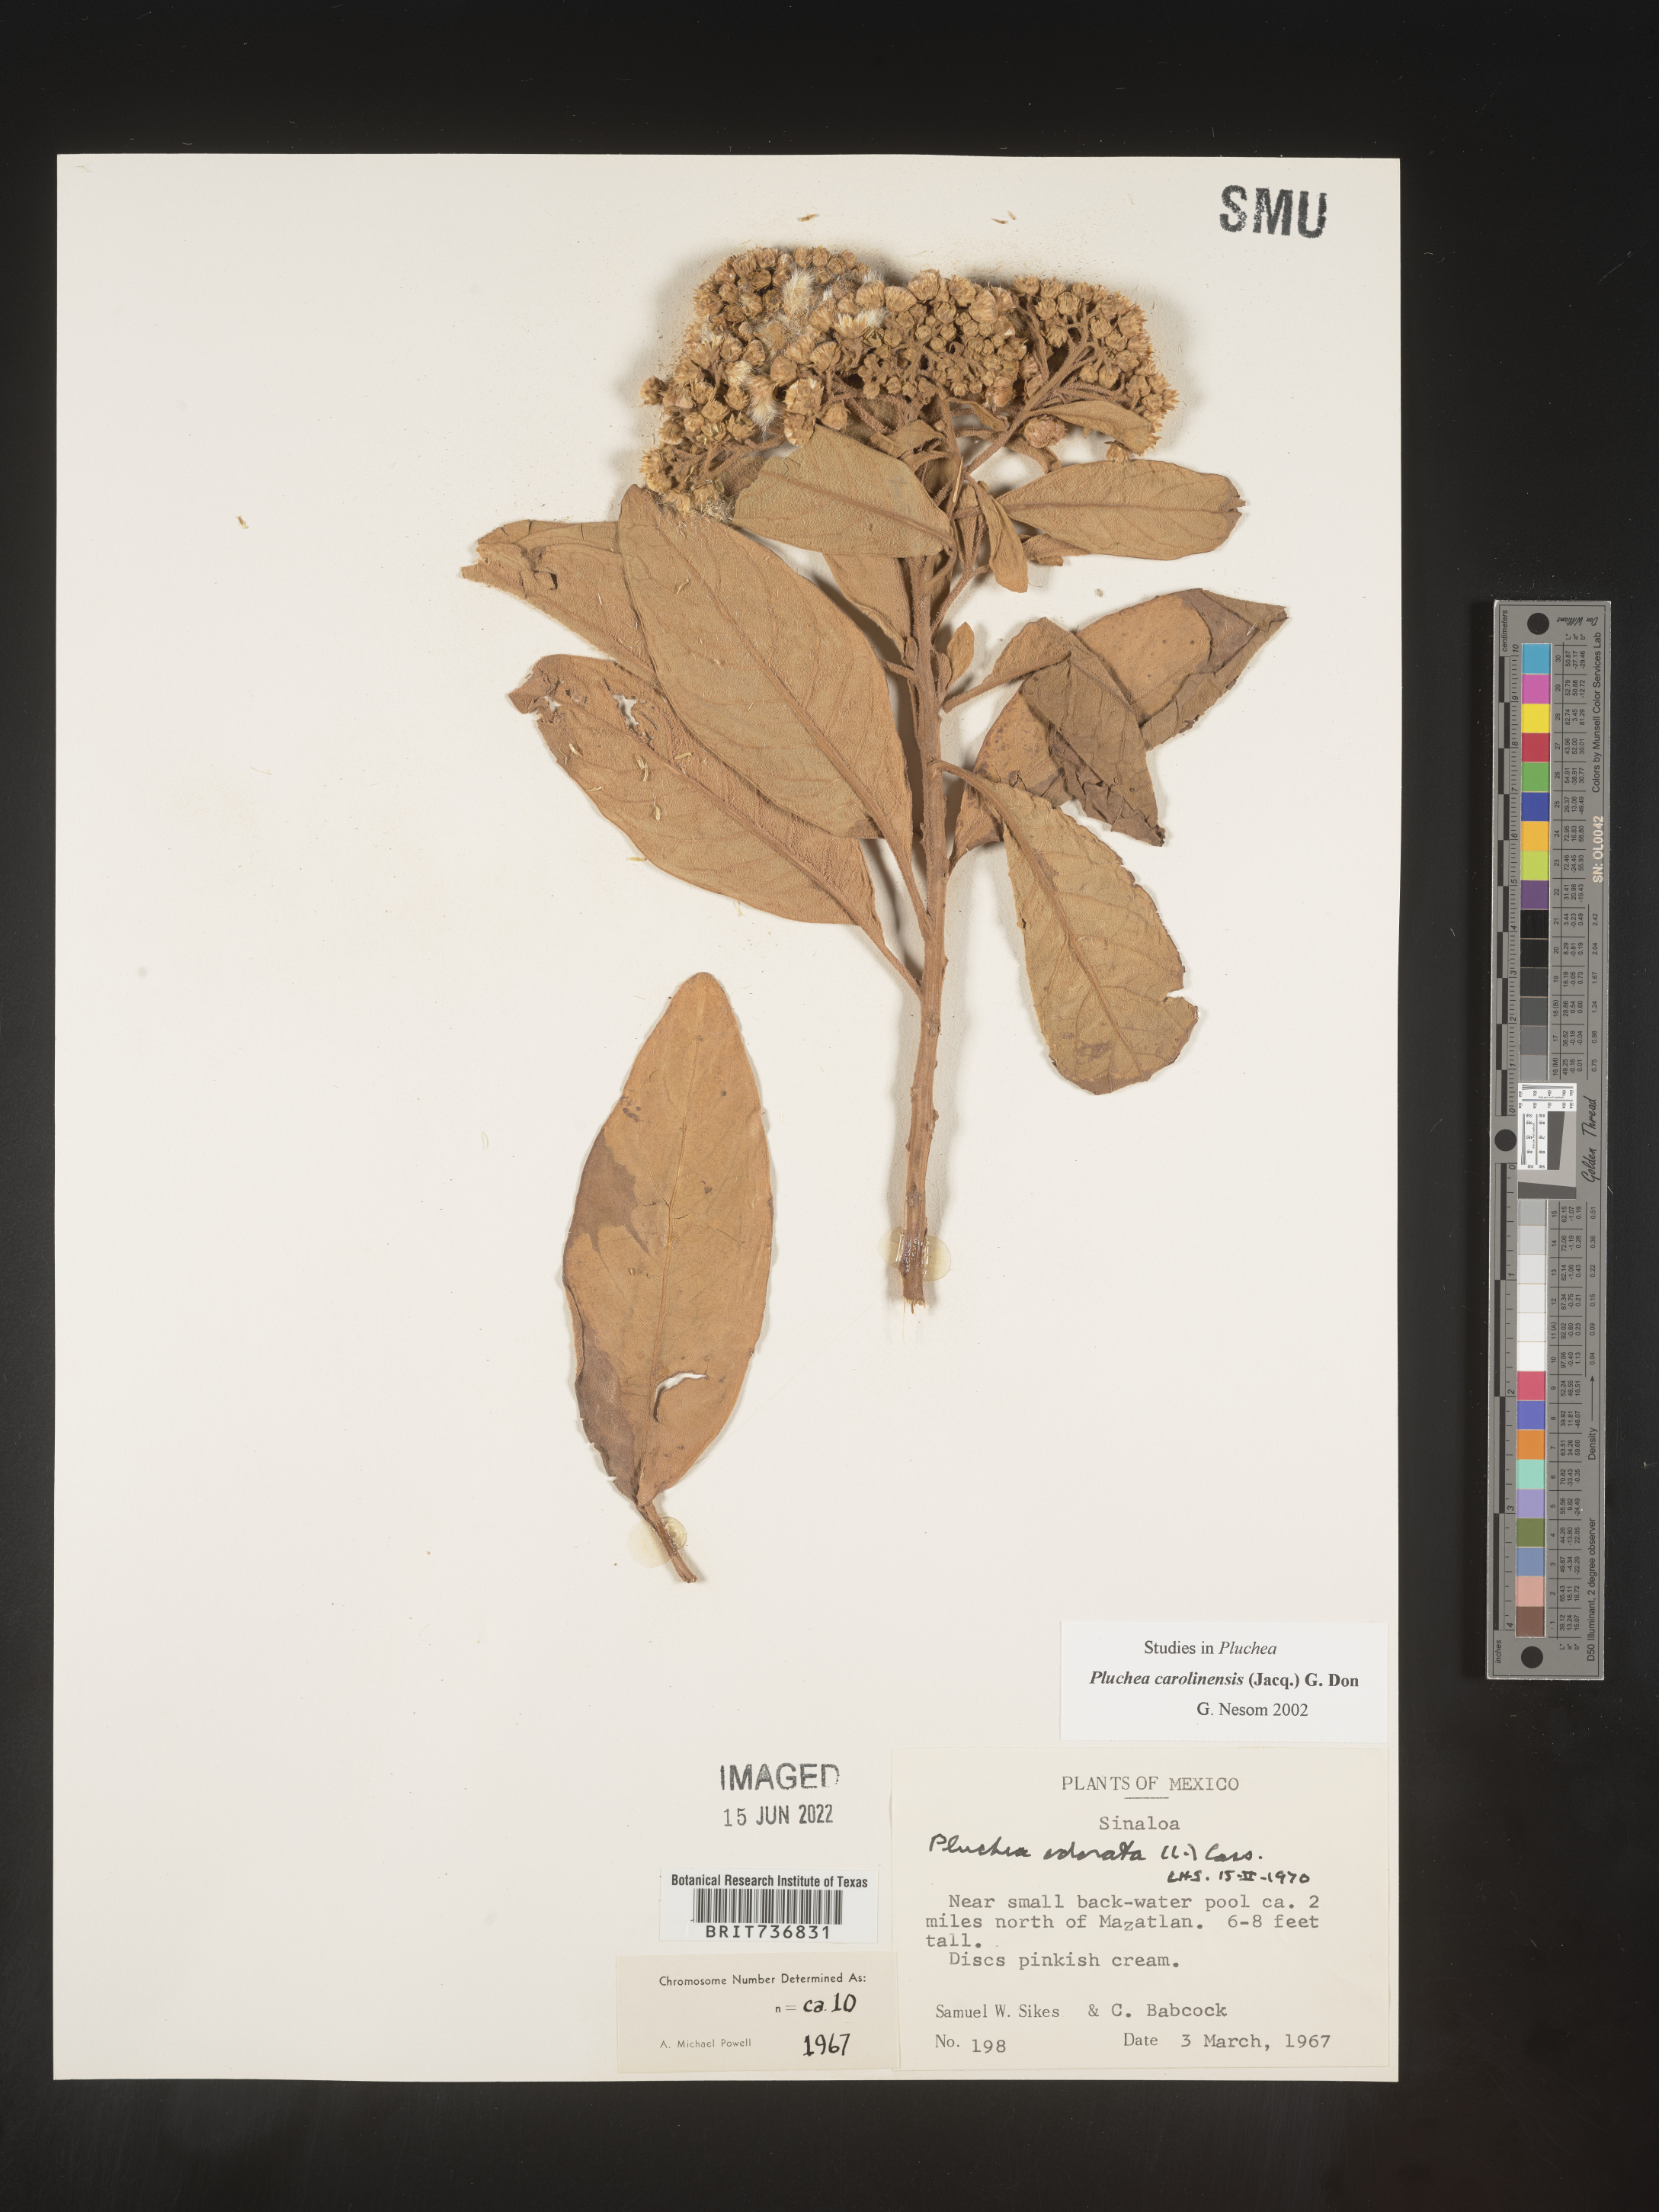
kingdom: Plantae
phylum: Tracheophyta
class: Magnoliopsida
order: Asterales
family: Asteraceae
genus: Pluchea
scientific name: Pluchea
